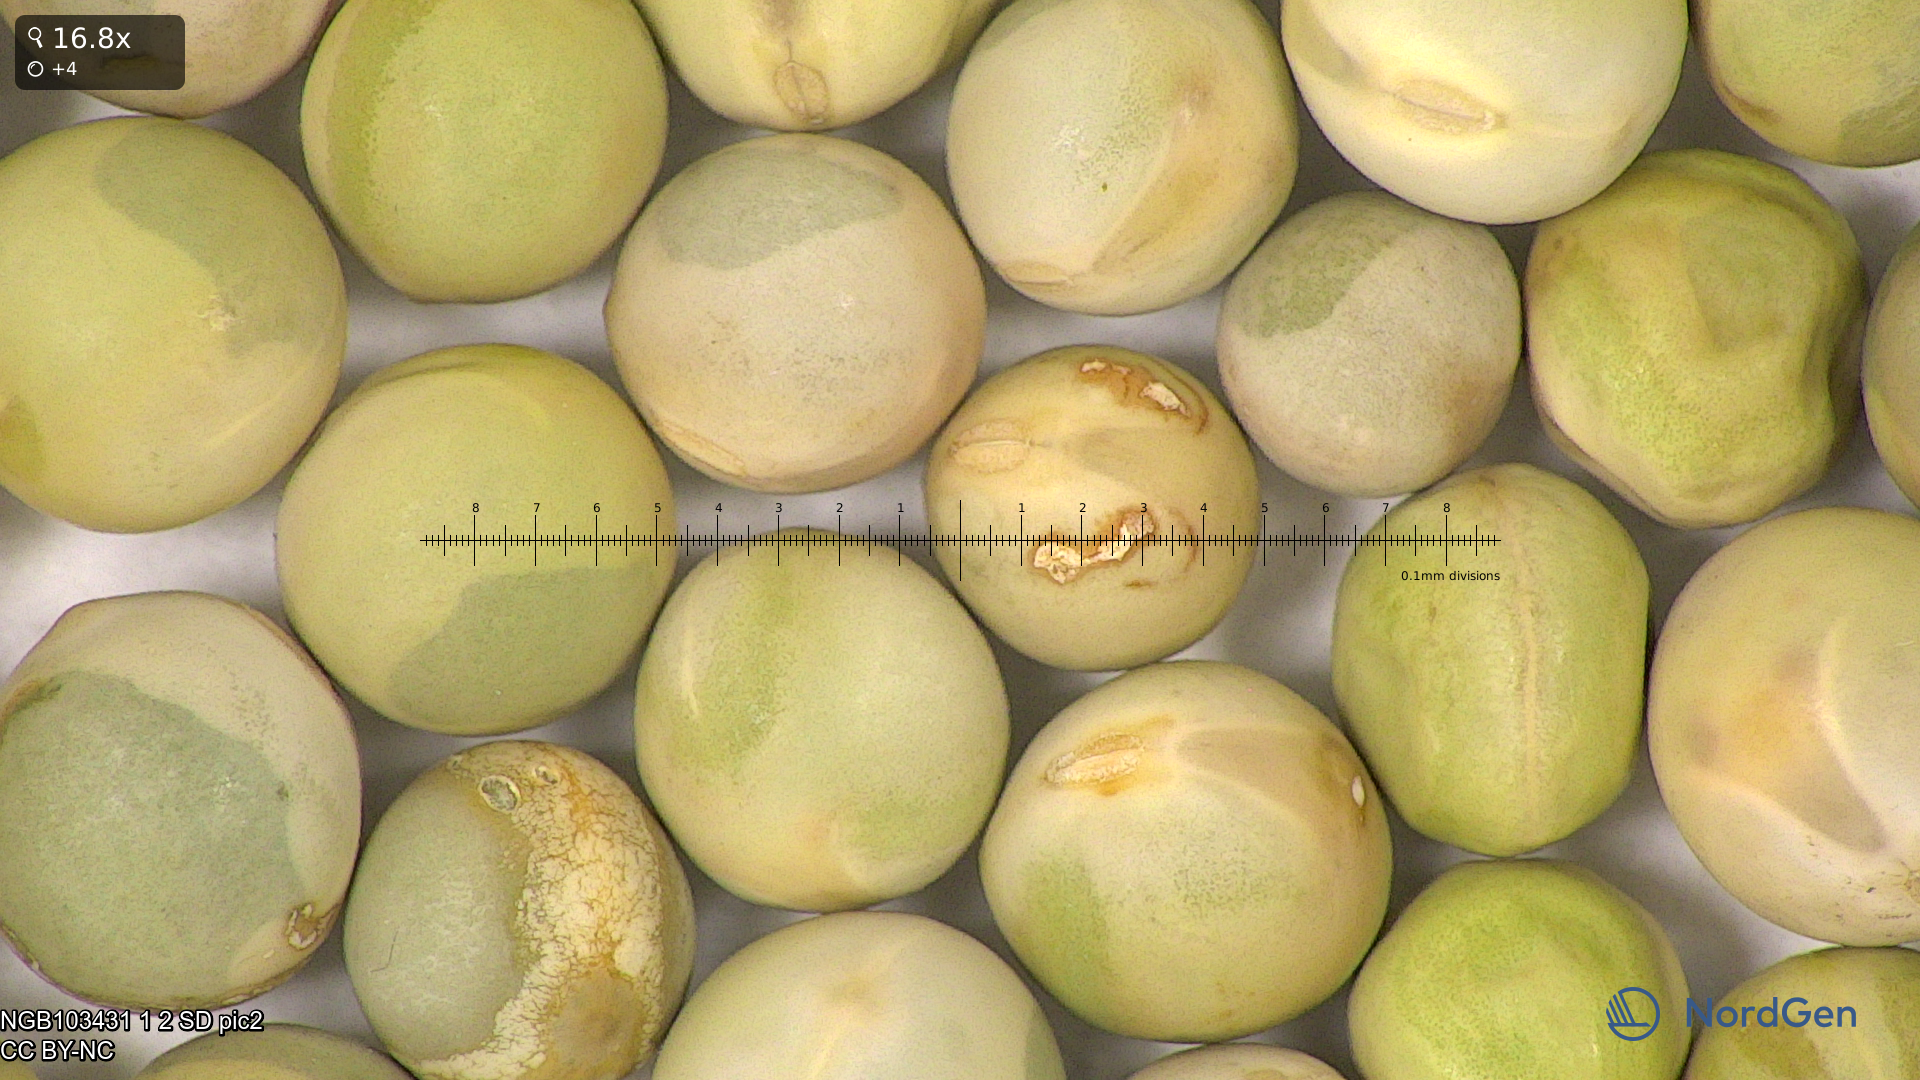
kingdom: Plantae
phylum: Tracheophyta
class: Magnoliopsida
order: Fabales
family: Fabaceae
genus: Lathyrus
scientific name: Lathyrus oleraceus
